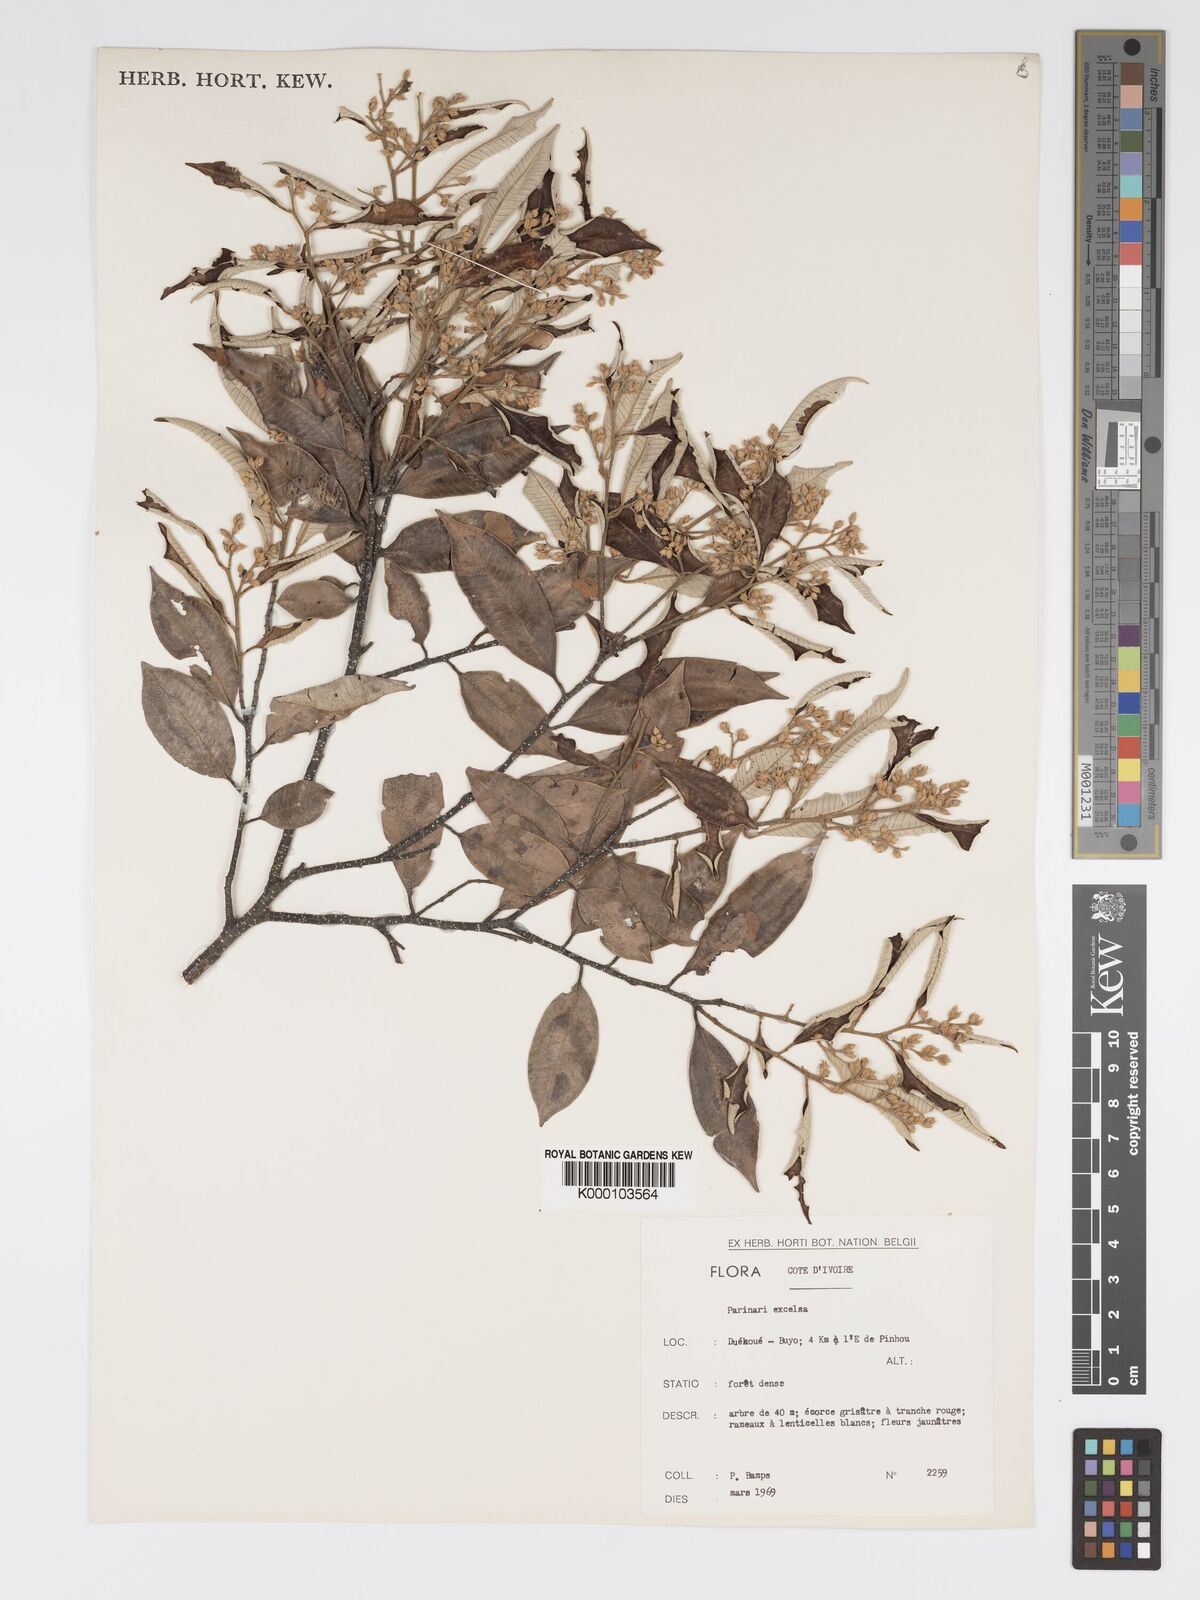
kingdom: Plantae
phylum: Tracheophyta
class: Magnoliopsida
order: Malpighiales
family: Chrysobalanaceae
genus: Parinari
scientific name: Parinari excelsa
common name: Guinea-plum
